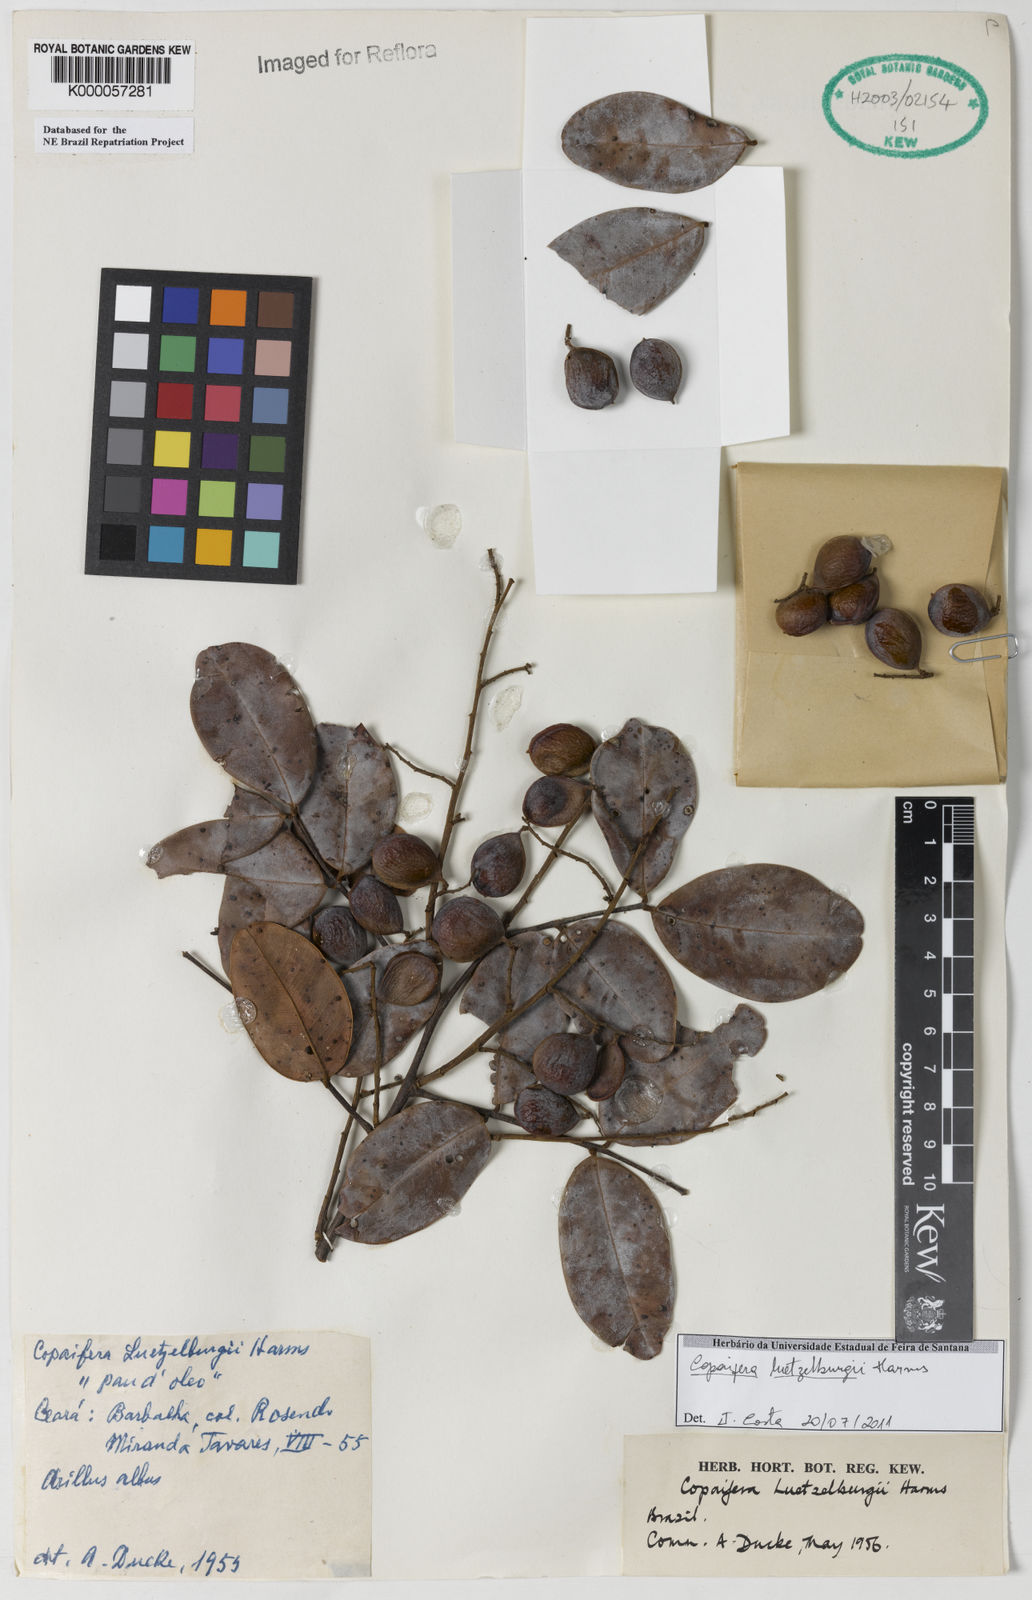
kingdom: Plantae
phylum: Tracheophyta
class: Magnoliopsida
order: Fabales
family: Fabaceae
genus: Copaifera
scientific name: Copaifera luetzelburgii
